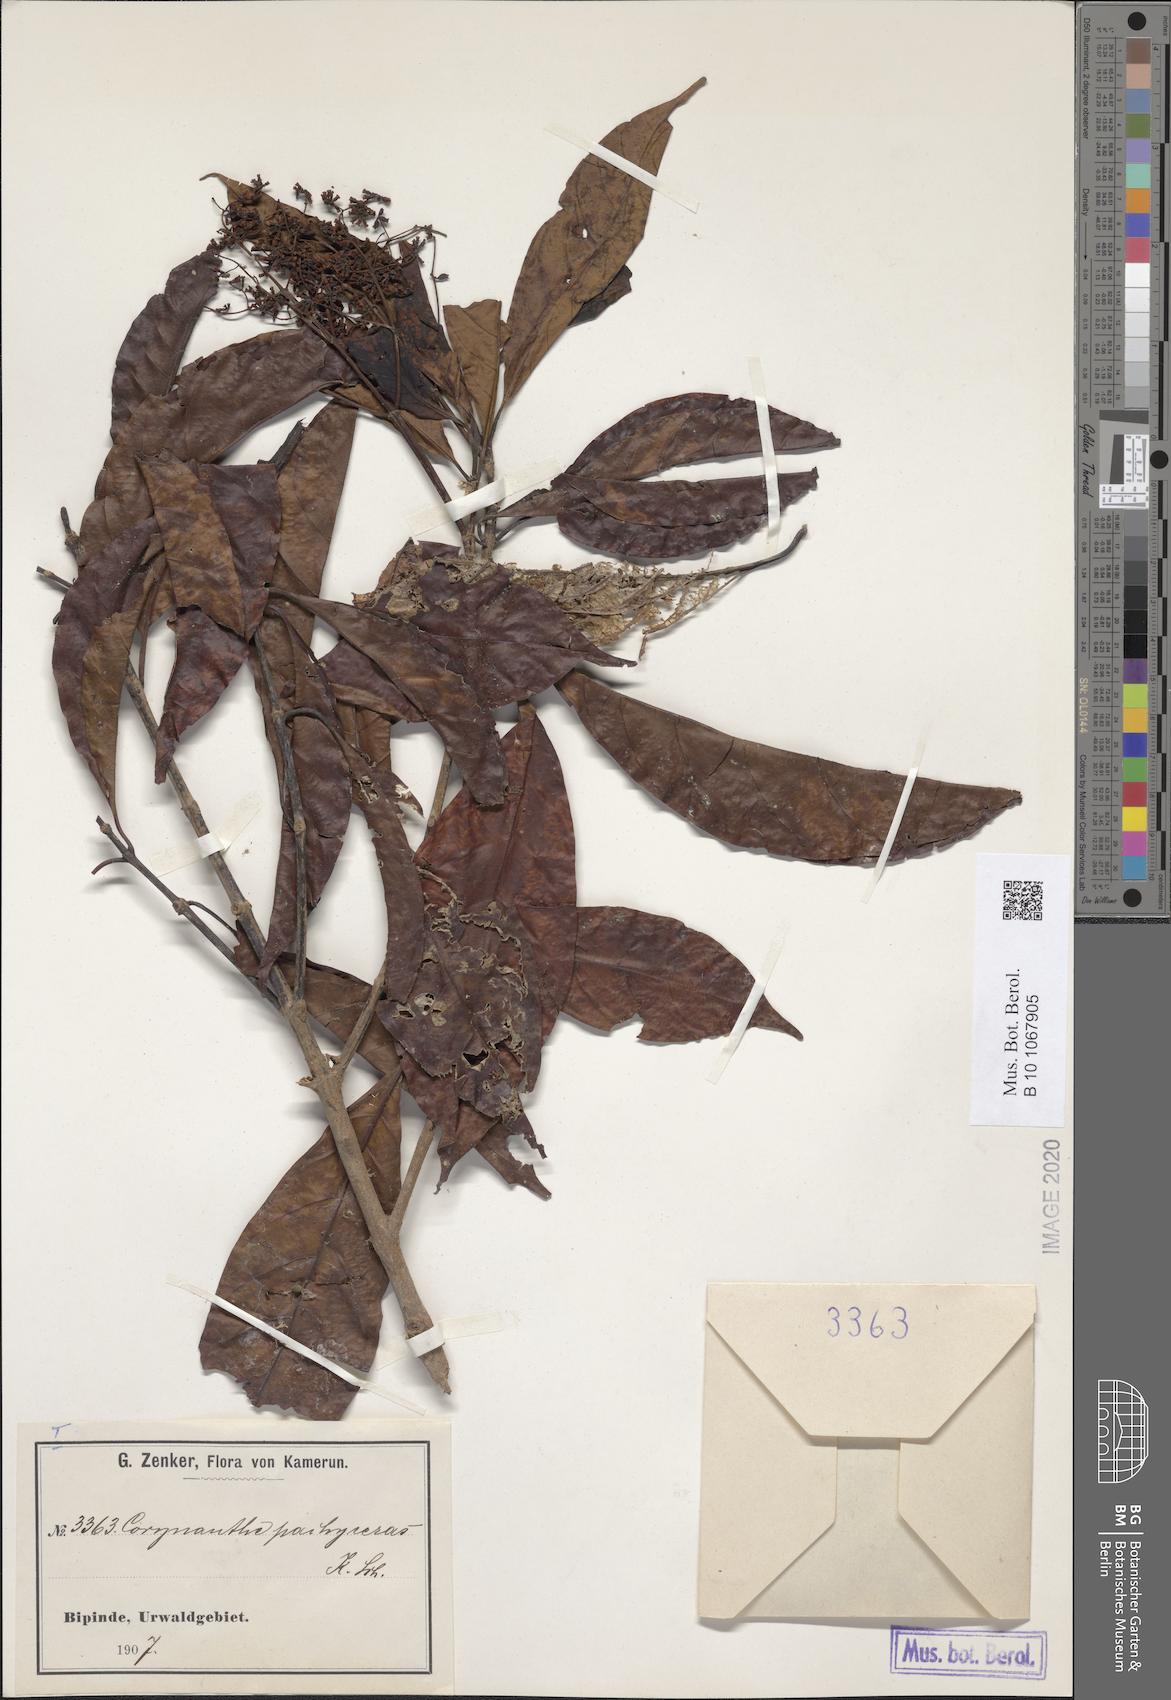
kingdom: Plantae
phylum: Tracheophyta
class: Magnoliopsida
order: Gentianales
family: Rubiaceae
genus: Corynanthe
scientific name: Corynanthe pachyceras
